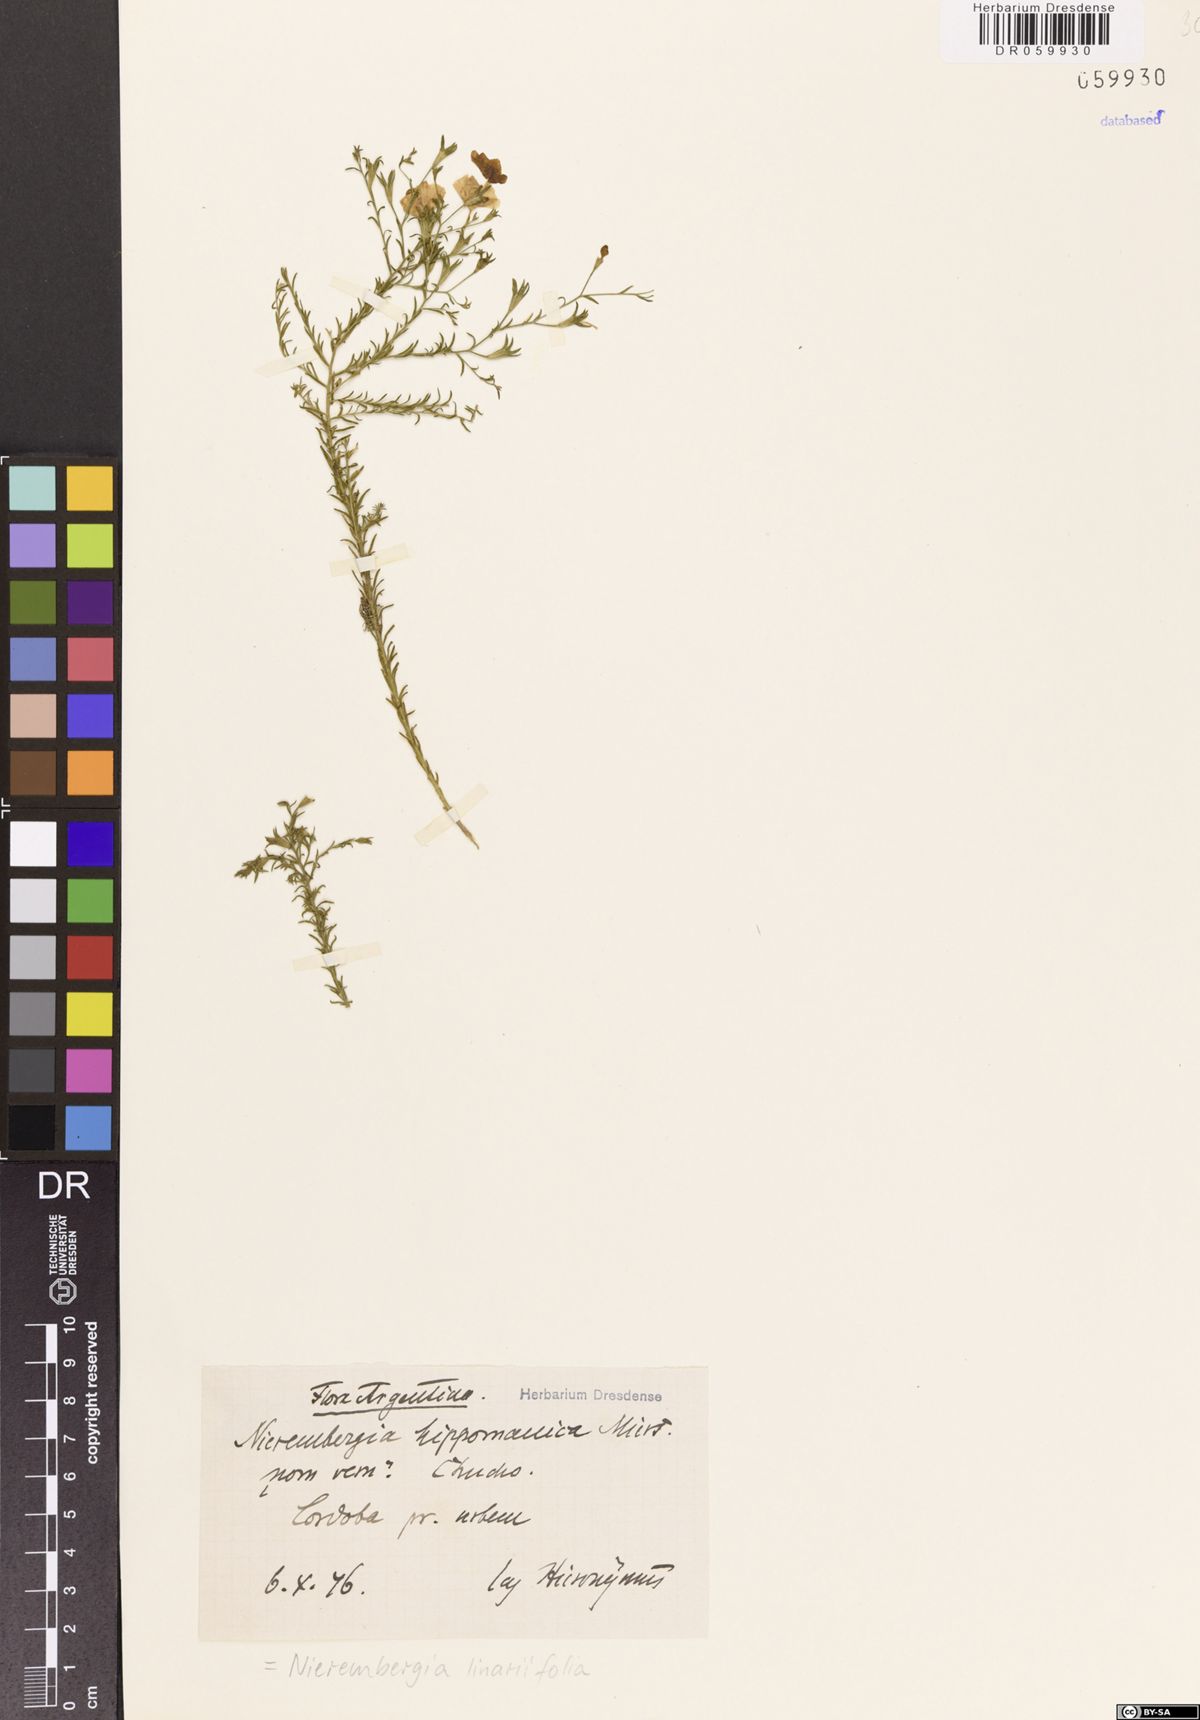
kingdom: Plantae
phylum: Tracheophyta
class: Magnoliopsida
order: Solanales
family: Solanaceae
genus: Nierembergia
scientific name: Nierembergia linariifolia
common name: Dwarf cupflower
